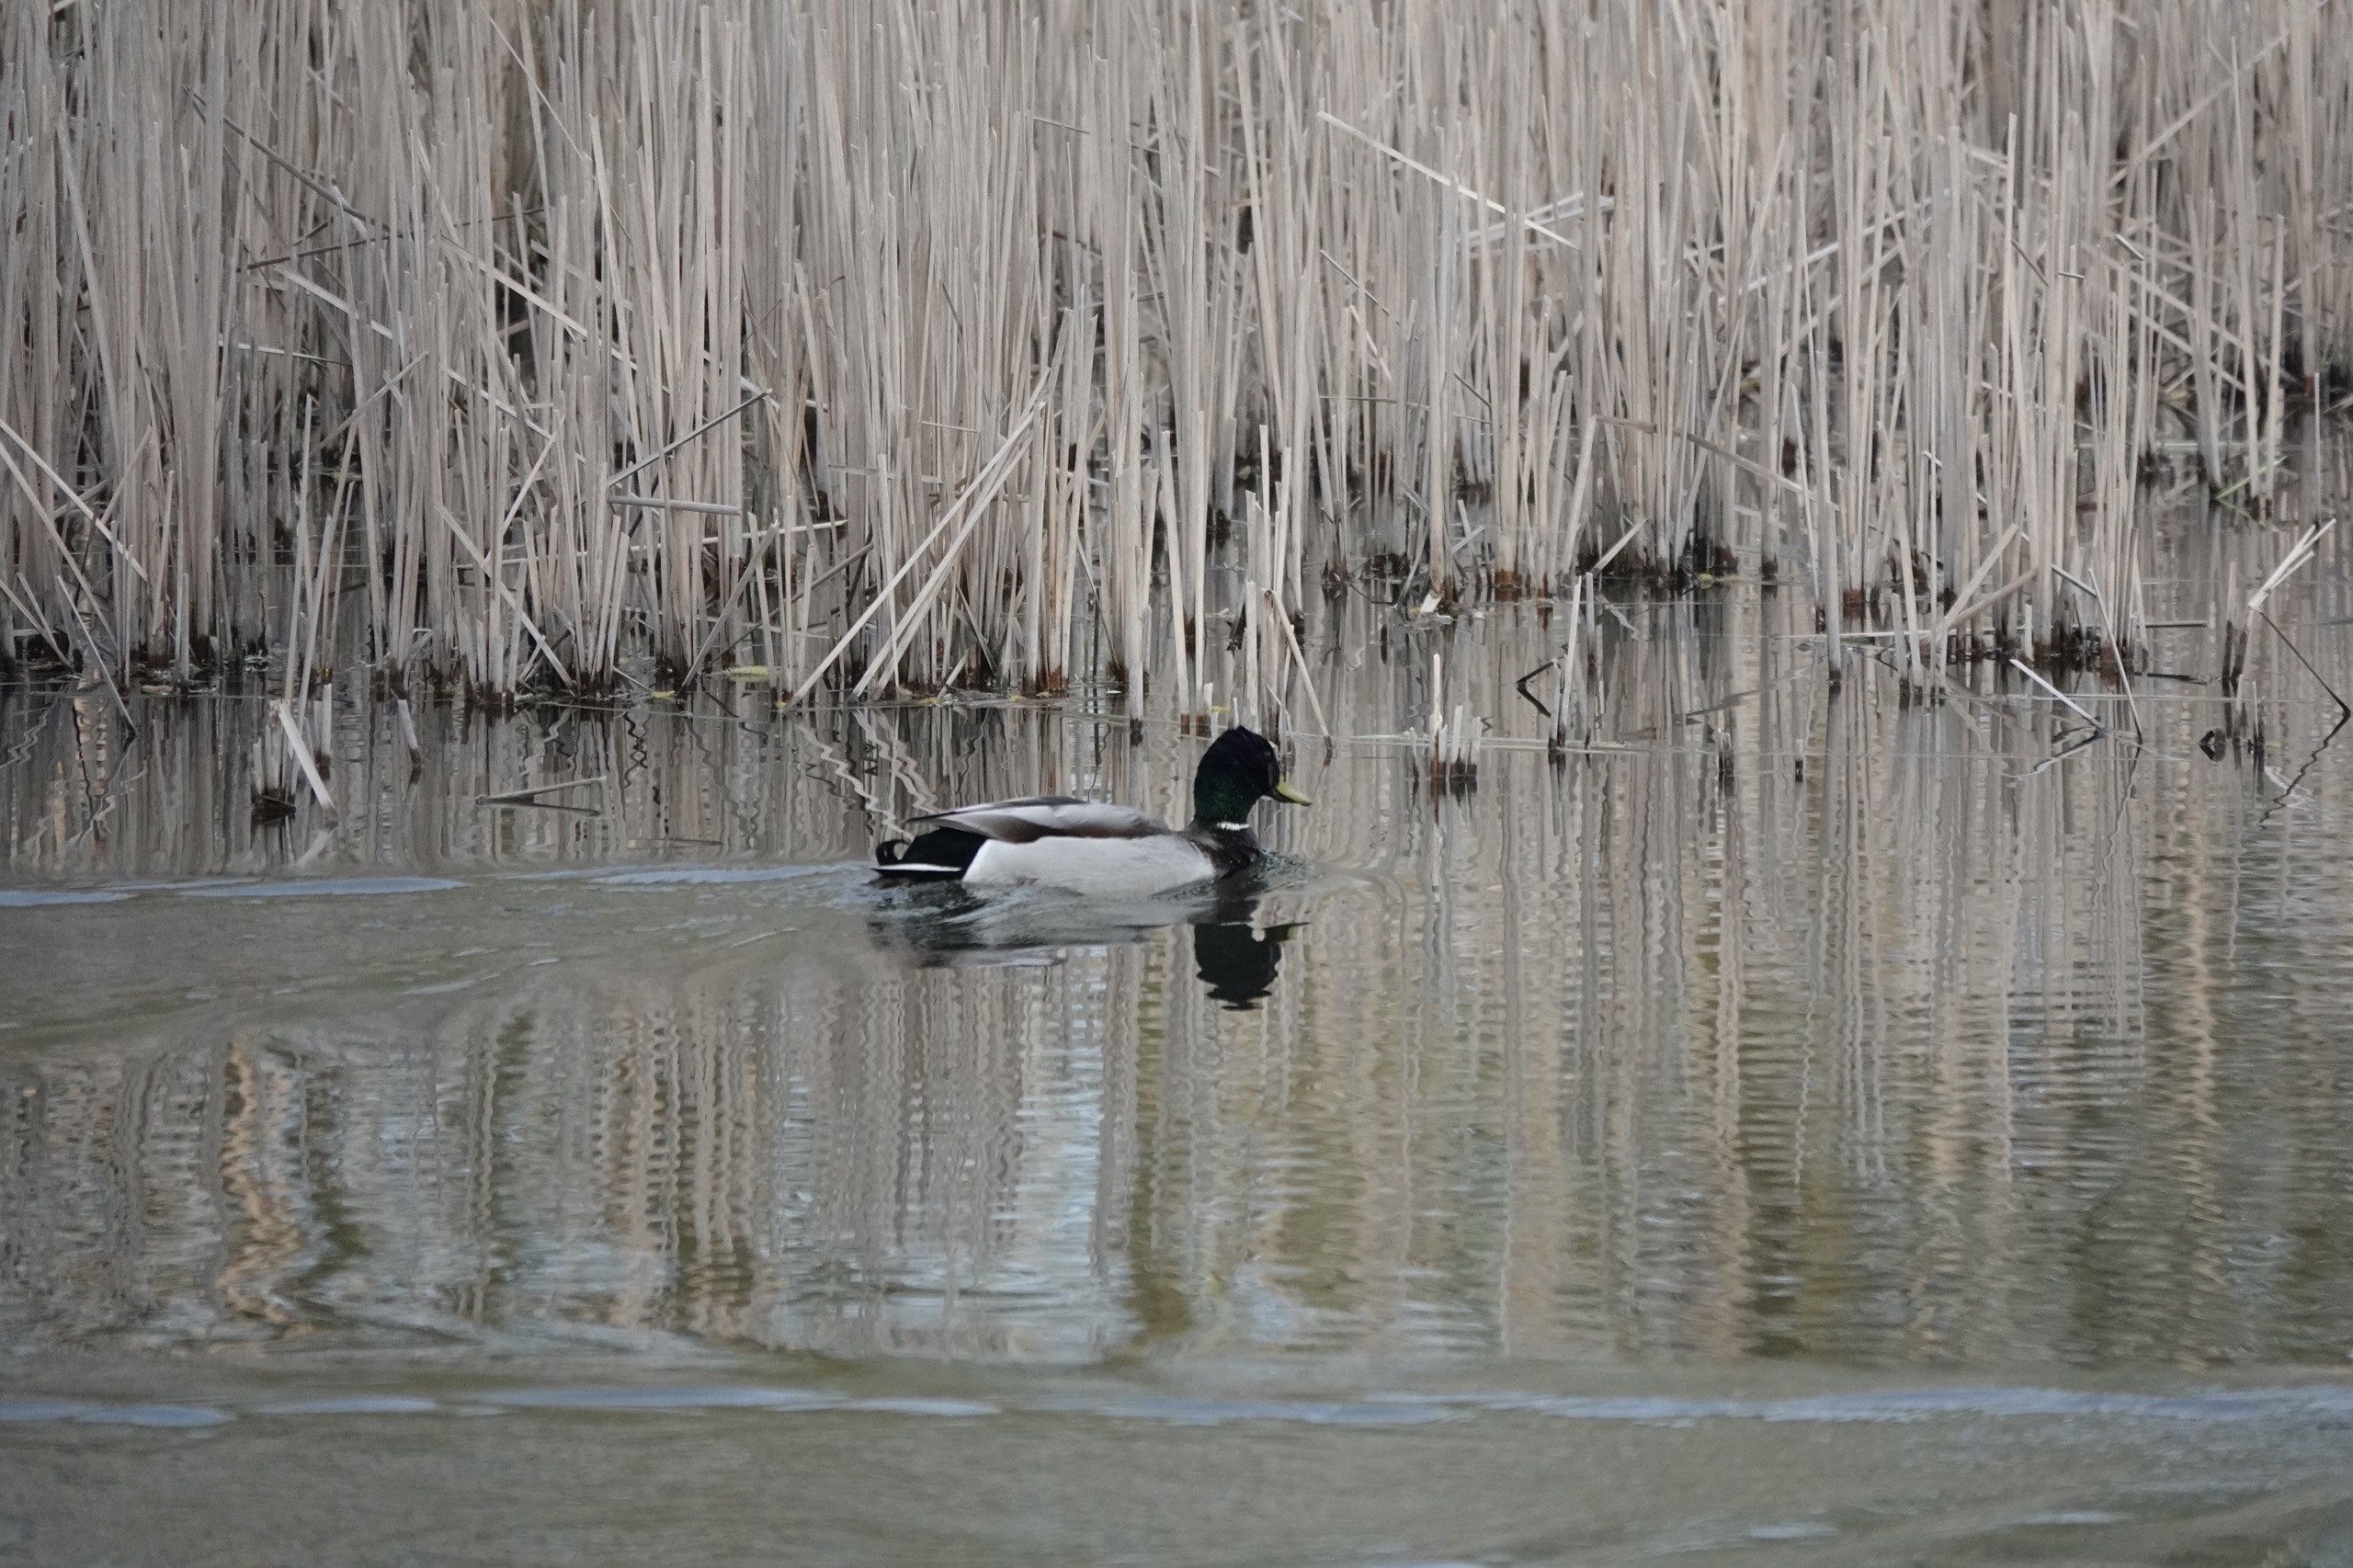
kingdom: Animalia
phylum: Chordata
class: Aves
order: Anseriformes
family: Anatidae
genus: Anas
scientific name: Anas platyrhynchos
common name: Gråand
